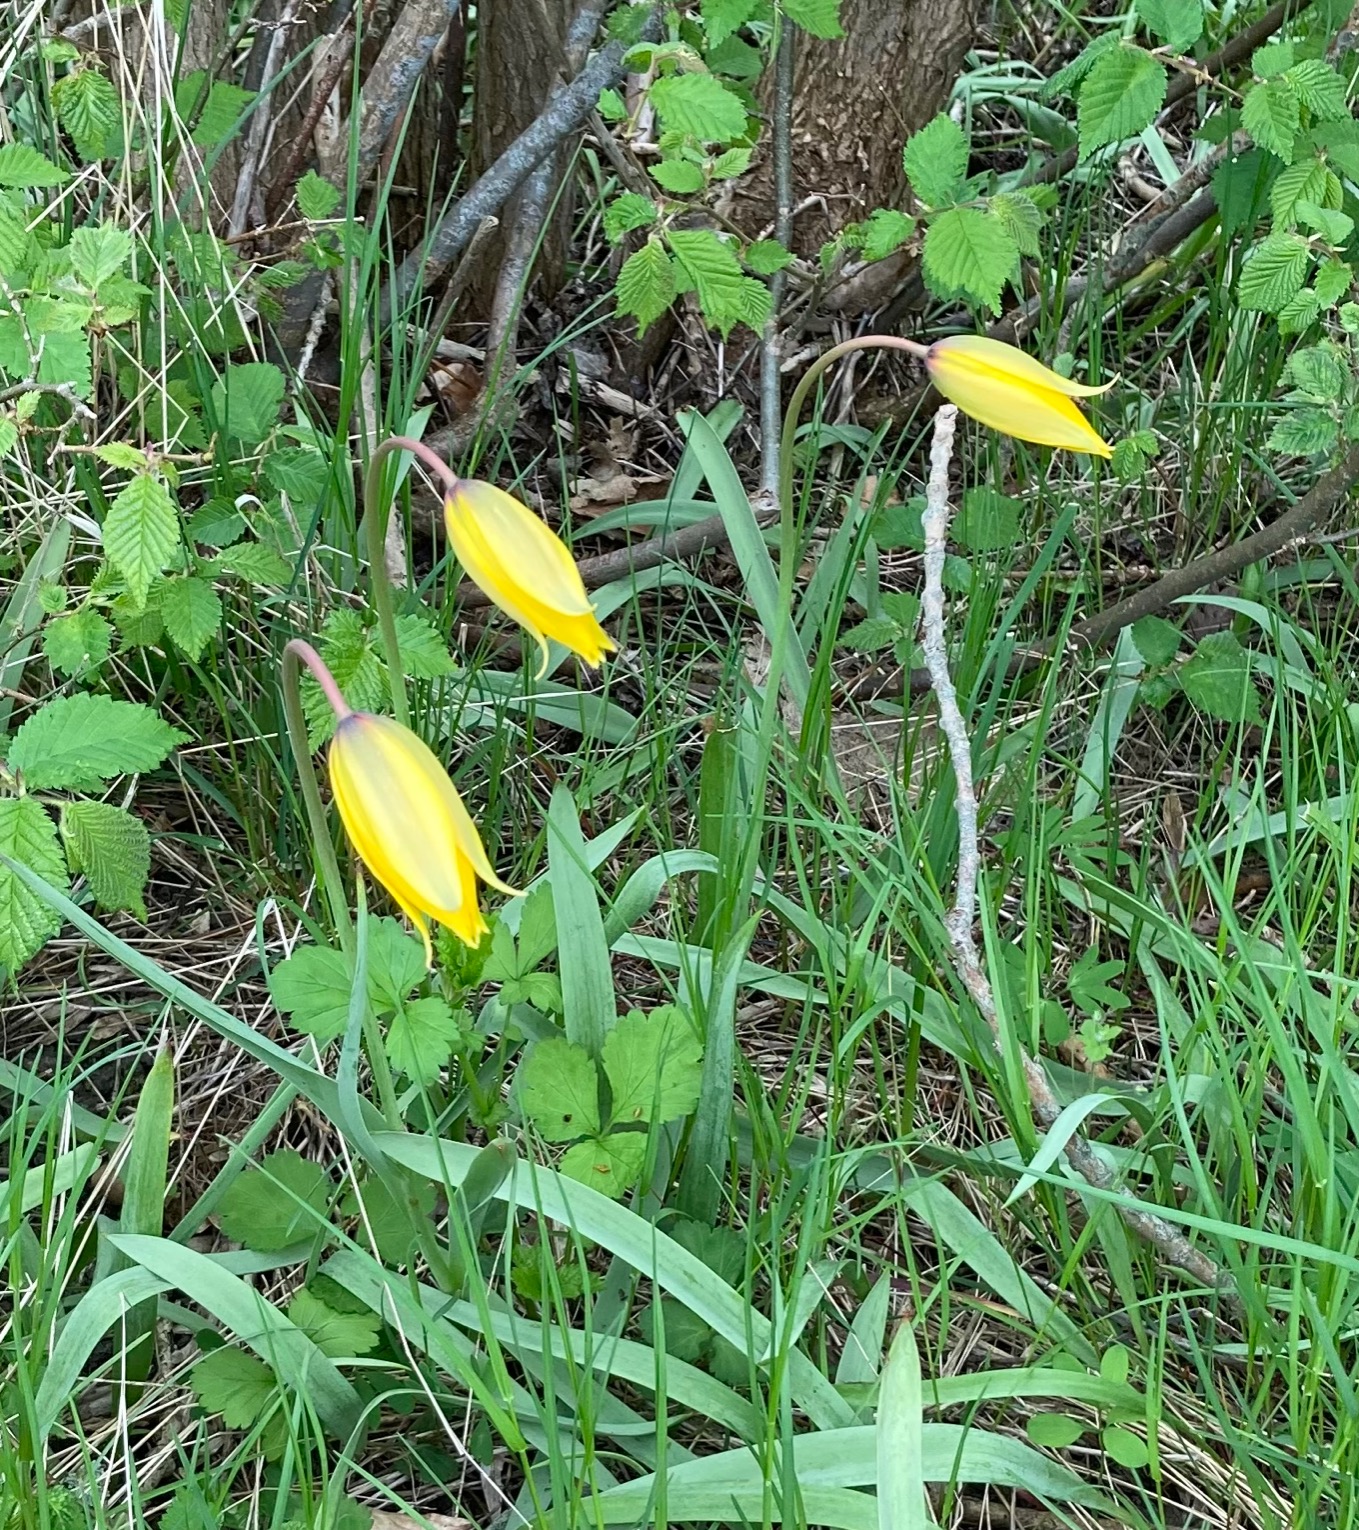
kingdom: Plantae
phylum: Tracheophyta
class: Liliopsida
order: Liliales
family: Liliaceae
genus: Tulipa
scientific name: Tulipa sylvestris
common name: Vild tulipan
